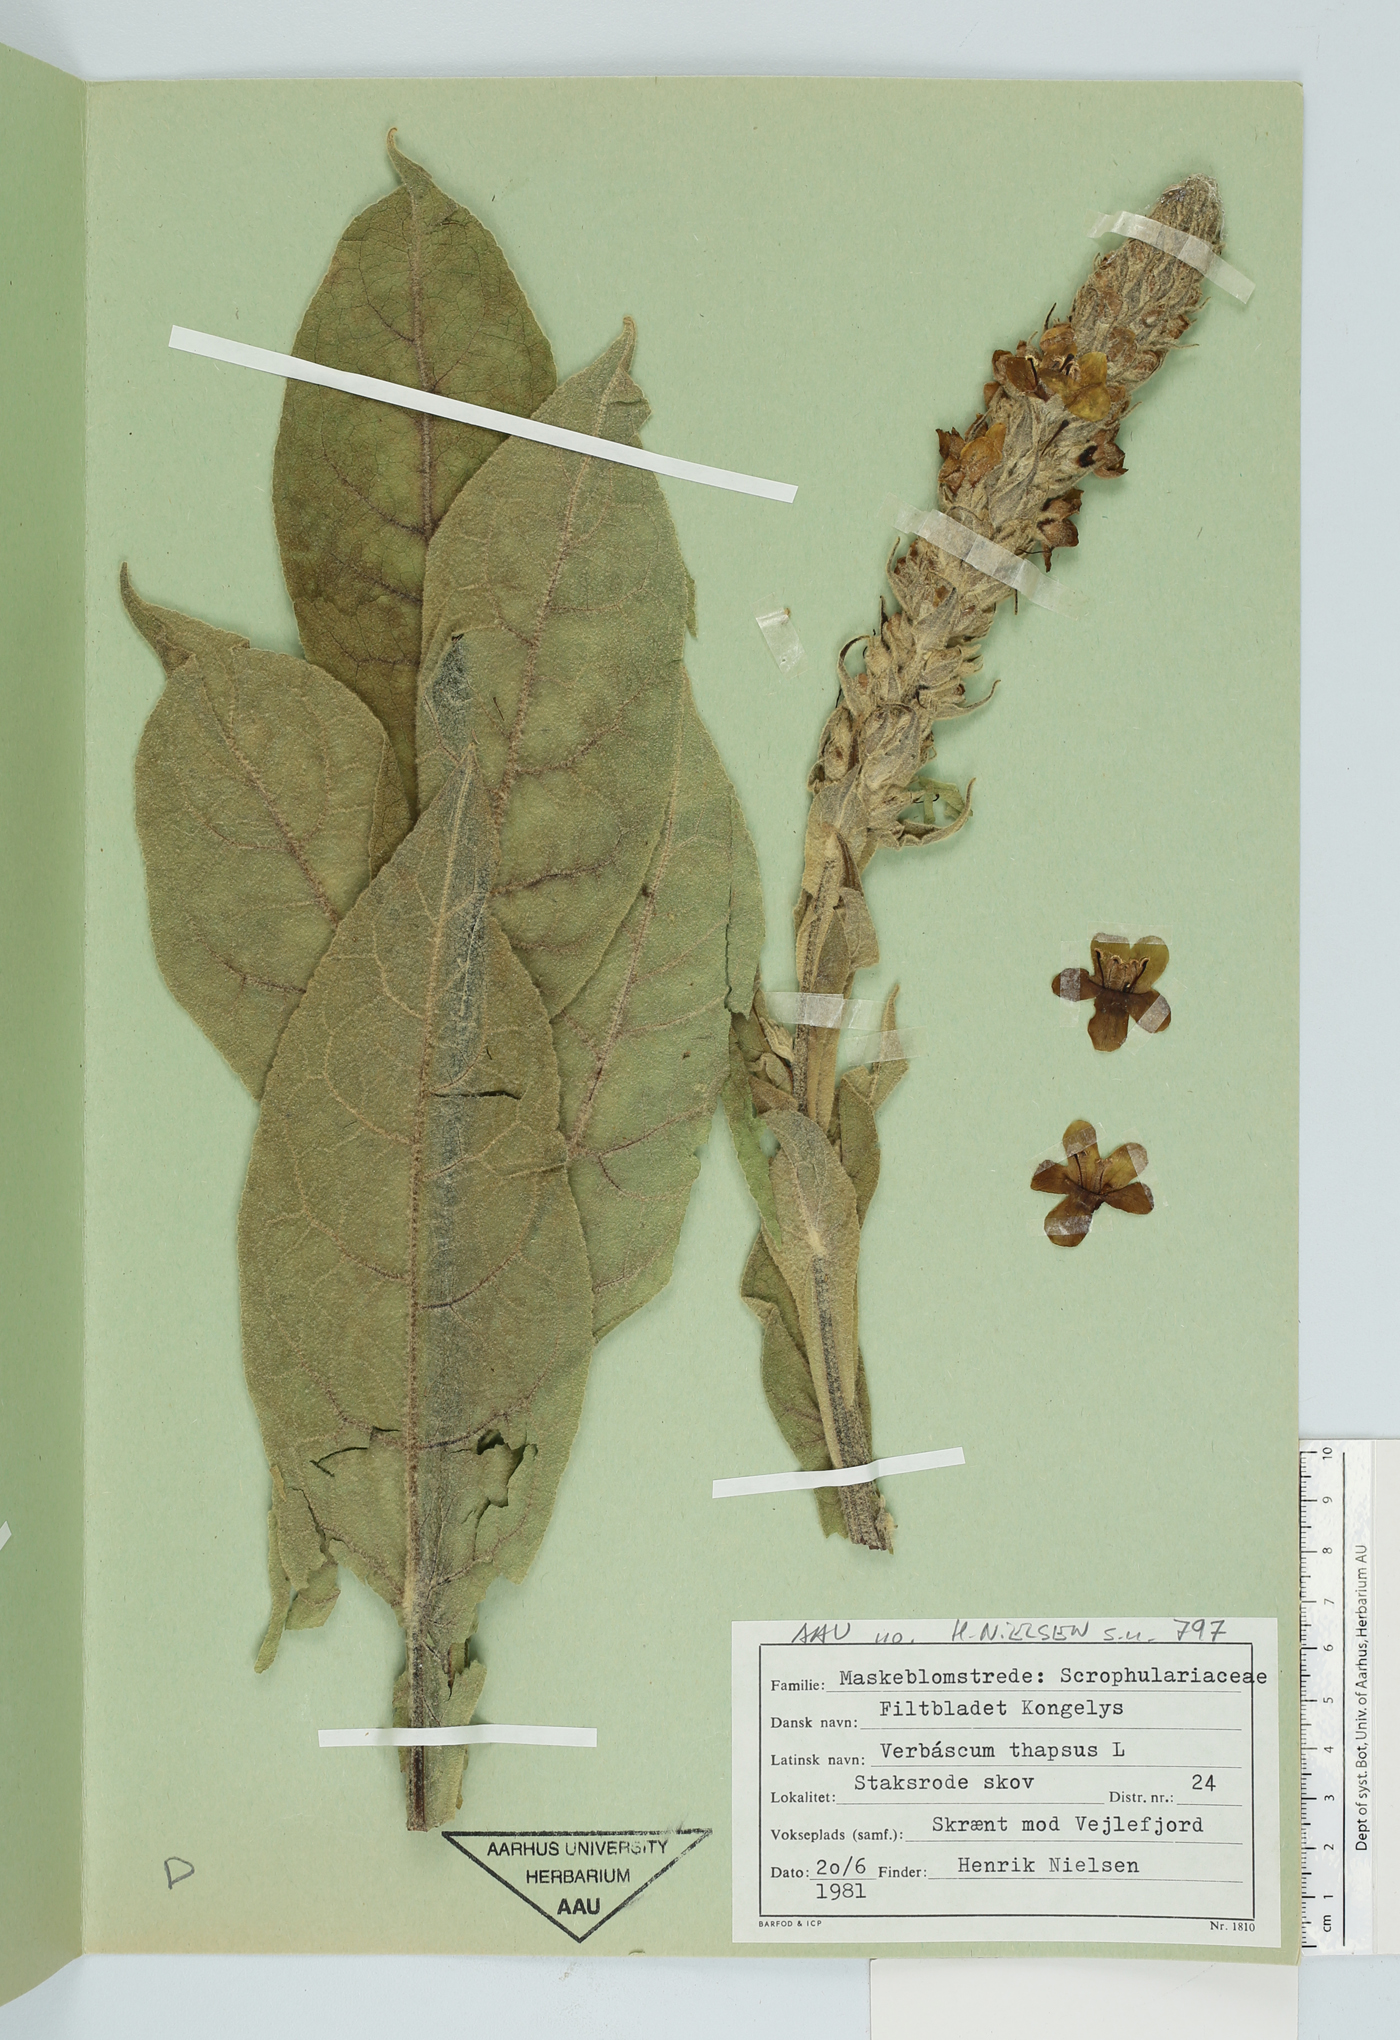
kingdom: Plantae
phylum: Tracheophyta
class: Magnoliopsida
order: Lamiales
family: Scrophulariaceae
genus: Verbascum
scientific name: Verbascum thapsus
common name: Common mullein
